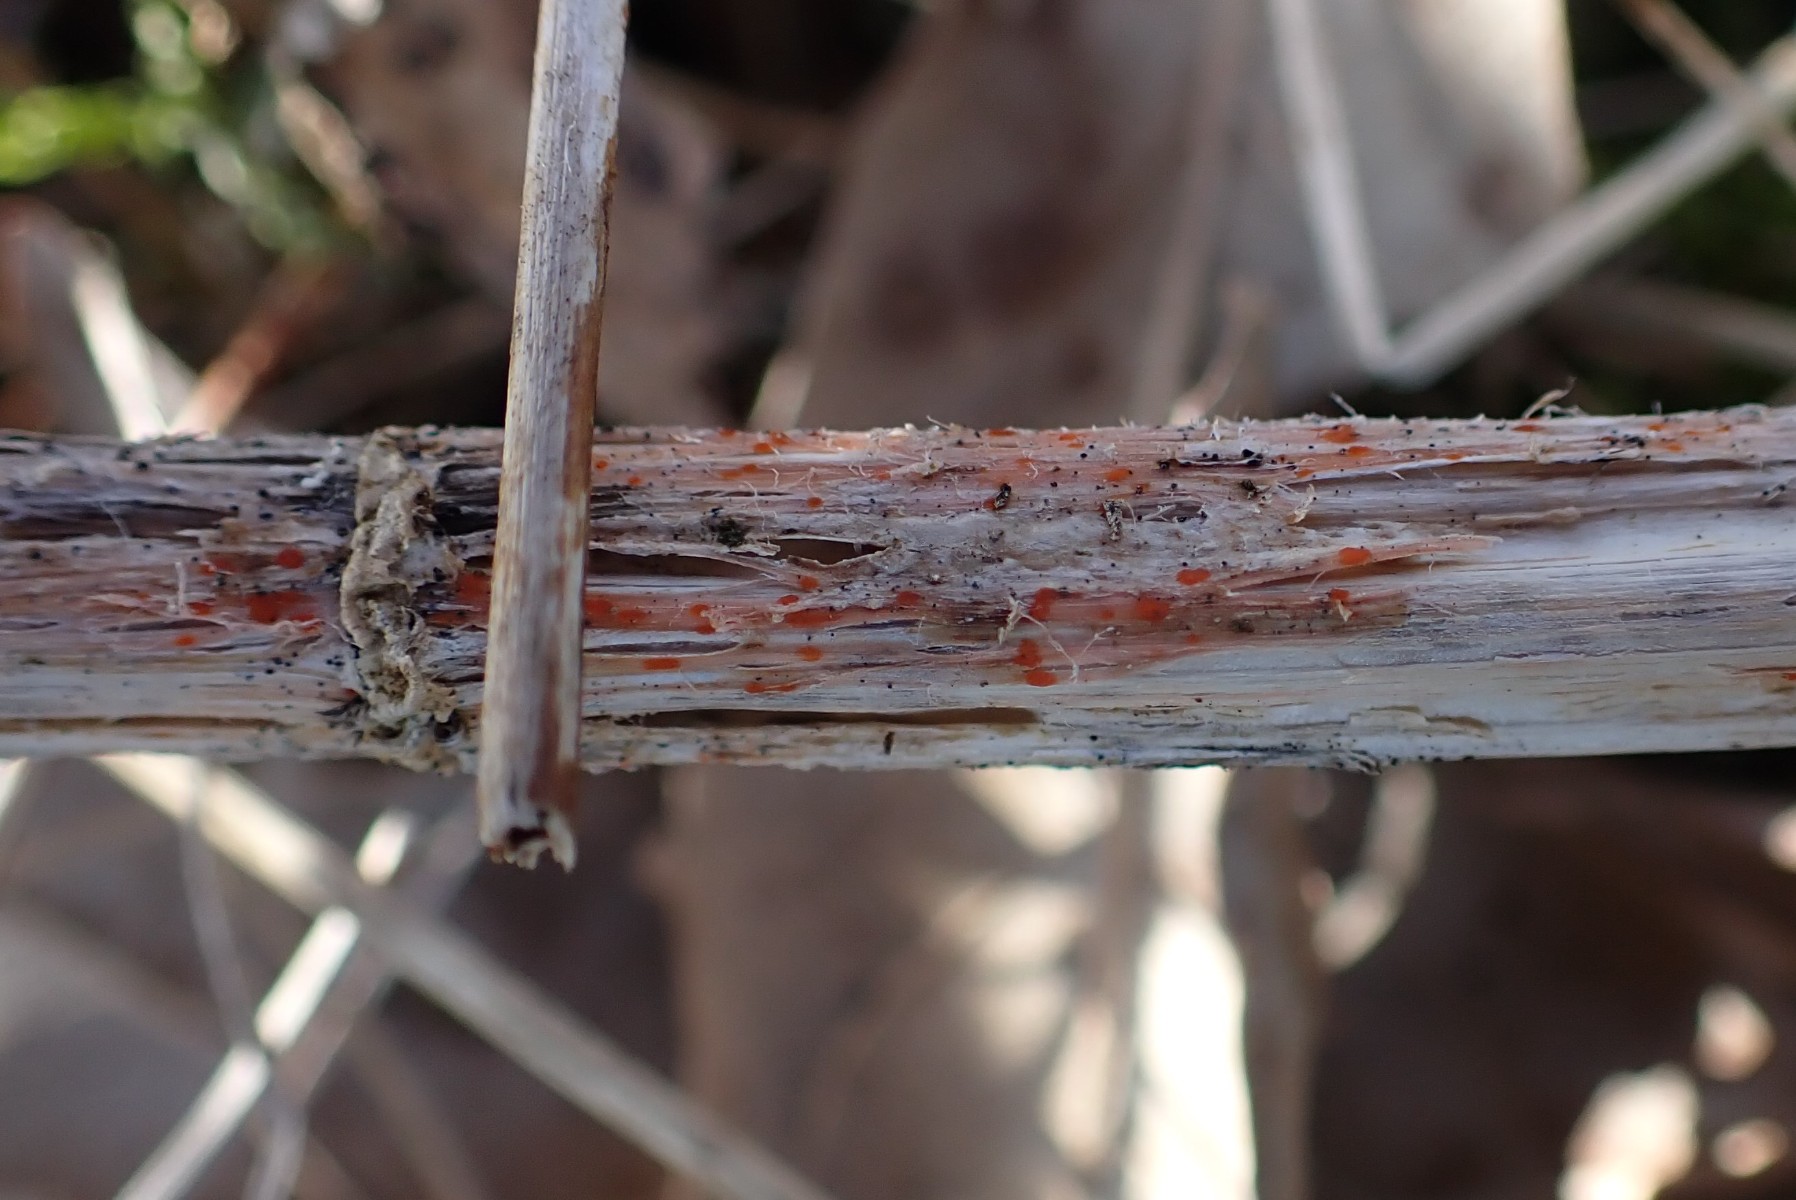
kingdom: Fungi
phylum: Ascomycota
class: Leotiomycetes
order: Helotiales
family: Calloriaceae
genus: Calloria
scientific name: Calloria urticae
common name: nælde-orangeskive
